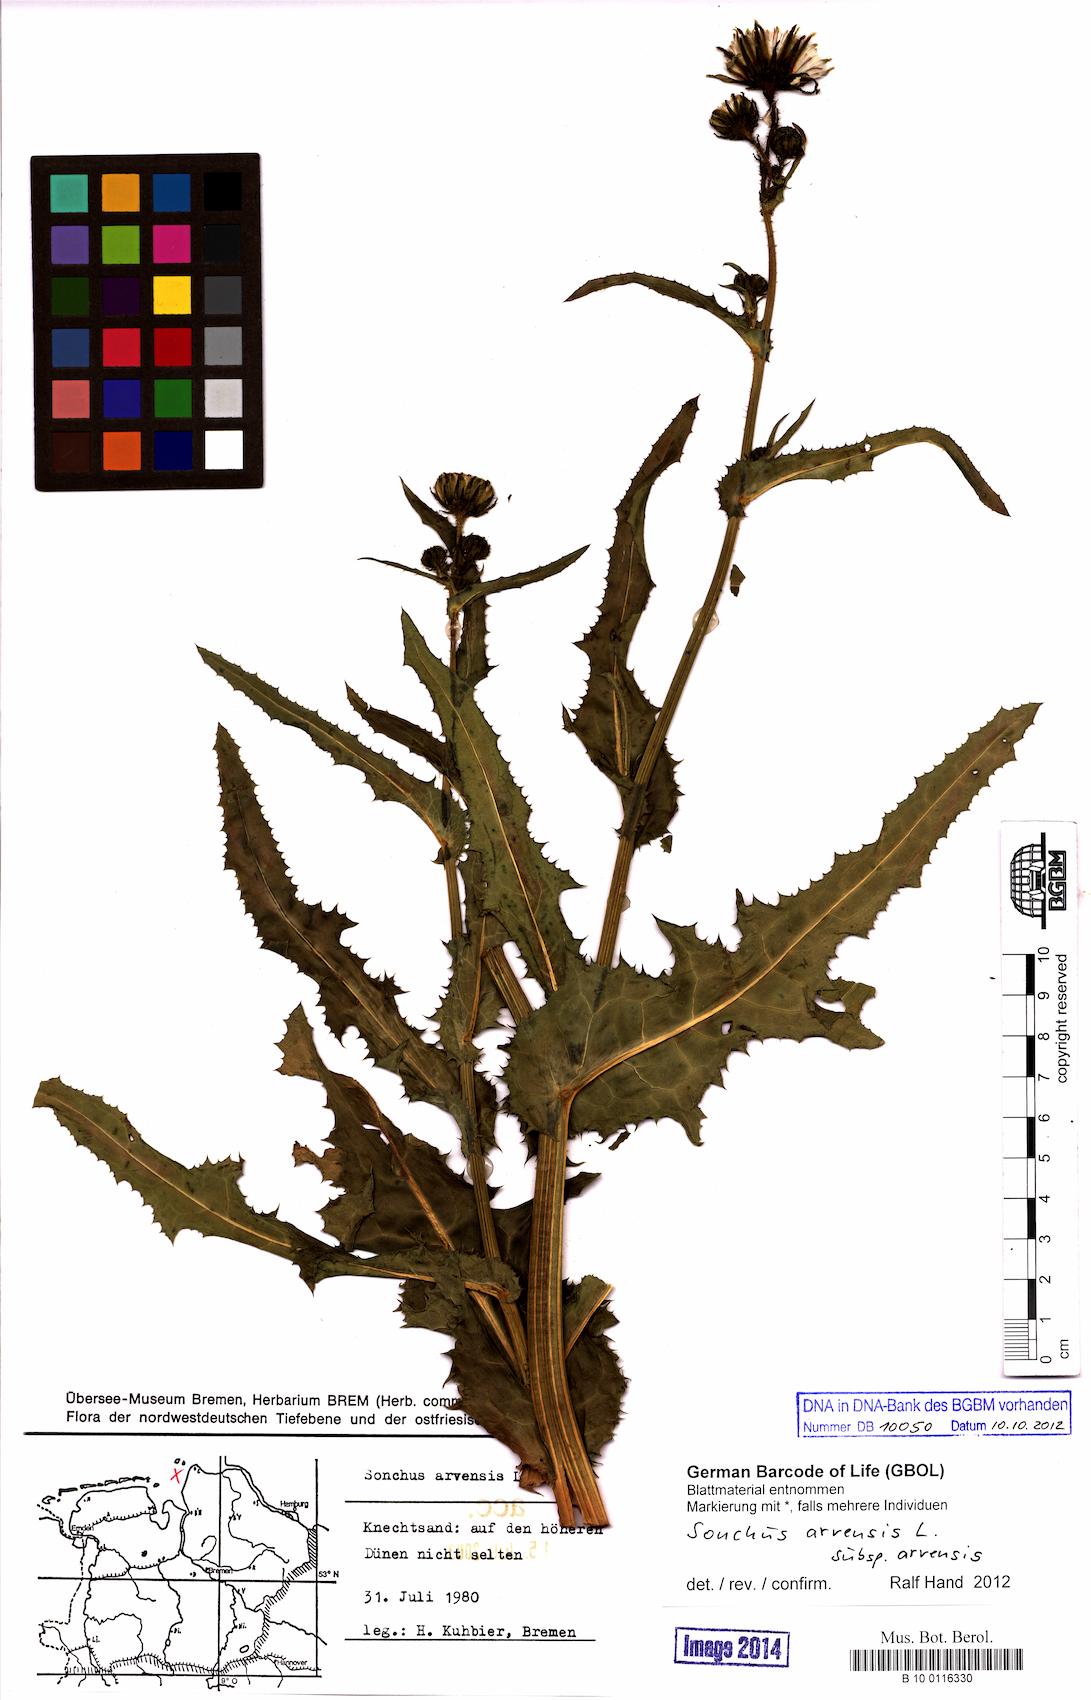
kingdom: Plantae
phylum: Tracheophyta
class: Magnoliopsida
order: Asterales
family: Asteraceae
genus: Sonchus
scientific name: Sonchus arvensis
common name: Perennial sow-thistle
